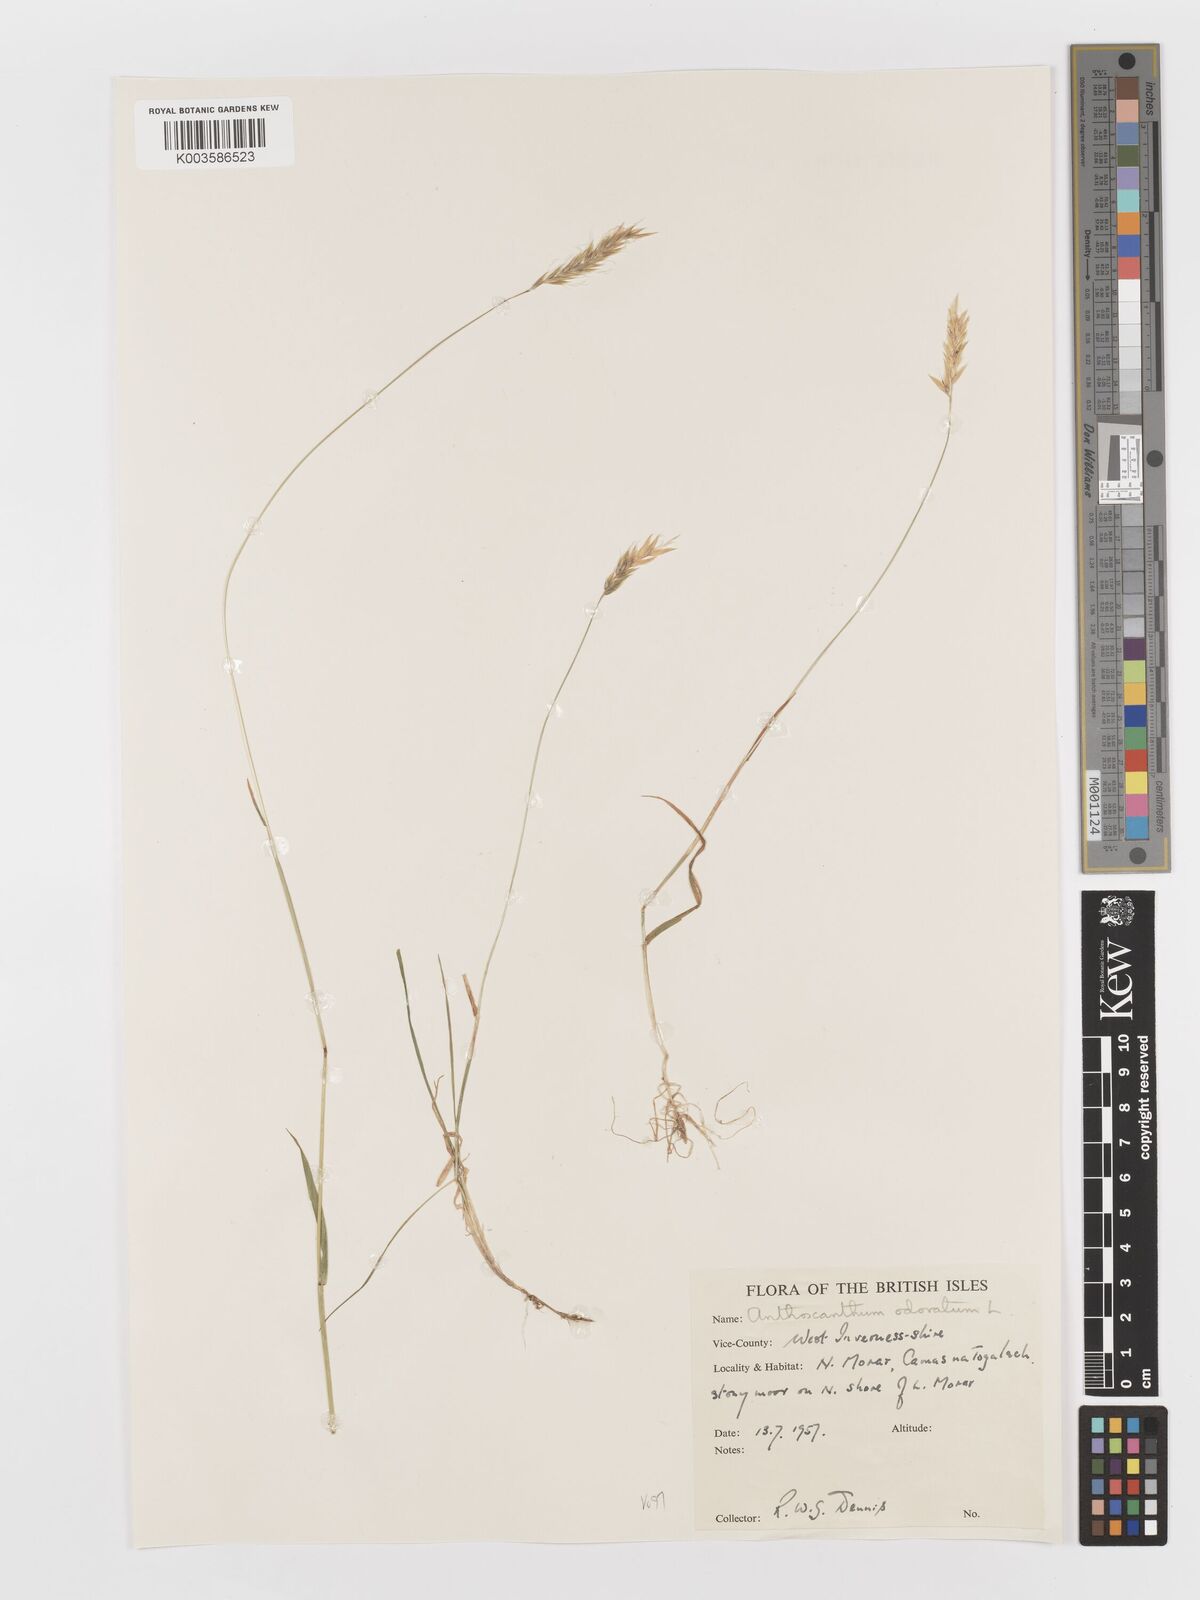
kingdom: Plantae
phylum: Tracheophyta
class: Liliopsida
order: Poales
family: Poaceae
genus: Anthoxanthum
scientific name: Anthoxanthum odoratum
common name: Sweet vernalgrass
